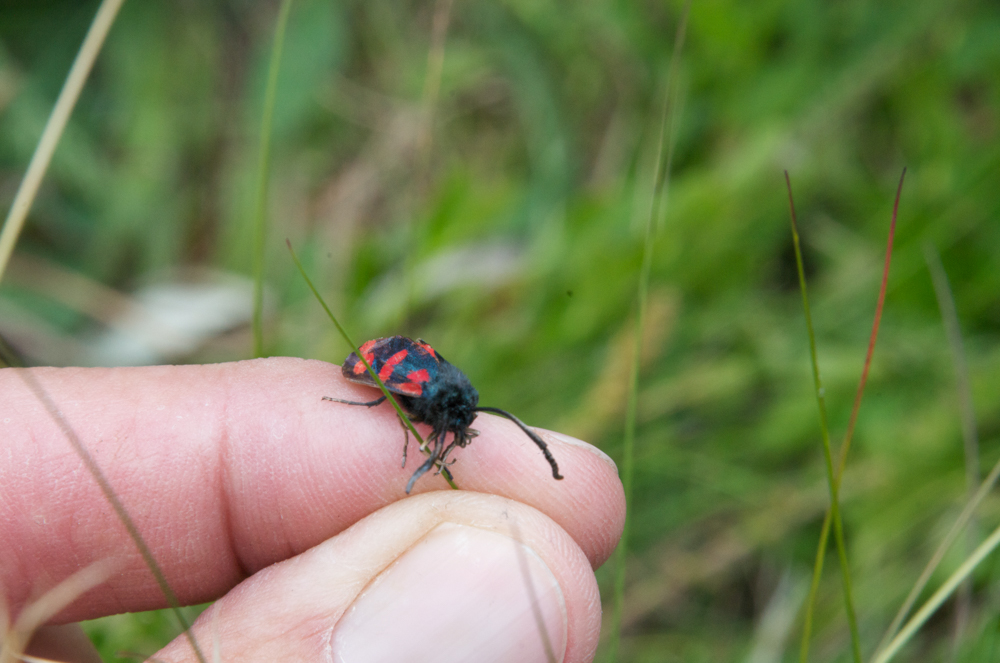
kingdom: Animalia
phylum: Arthropoda
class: Insecta
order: Lepidoptera
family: Zygaenidae
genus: Zygaena
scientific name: Zygaena filipendulae
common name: Six-spot burnet
